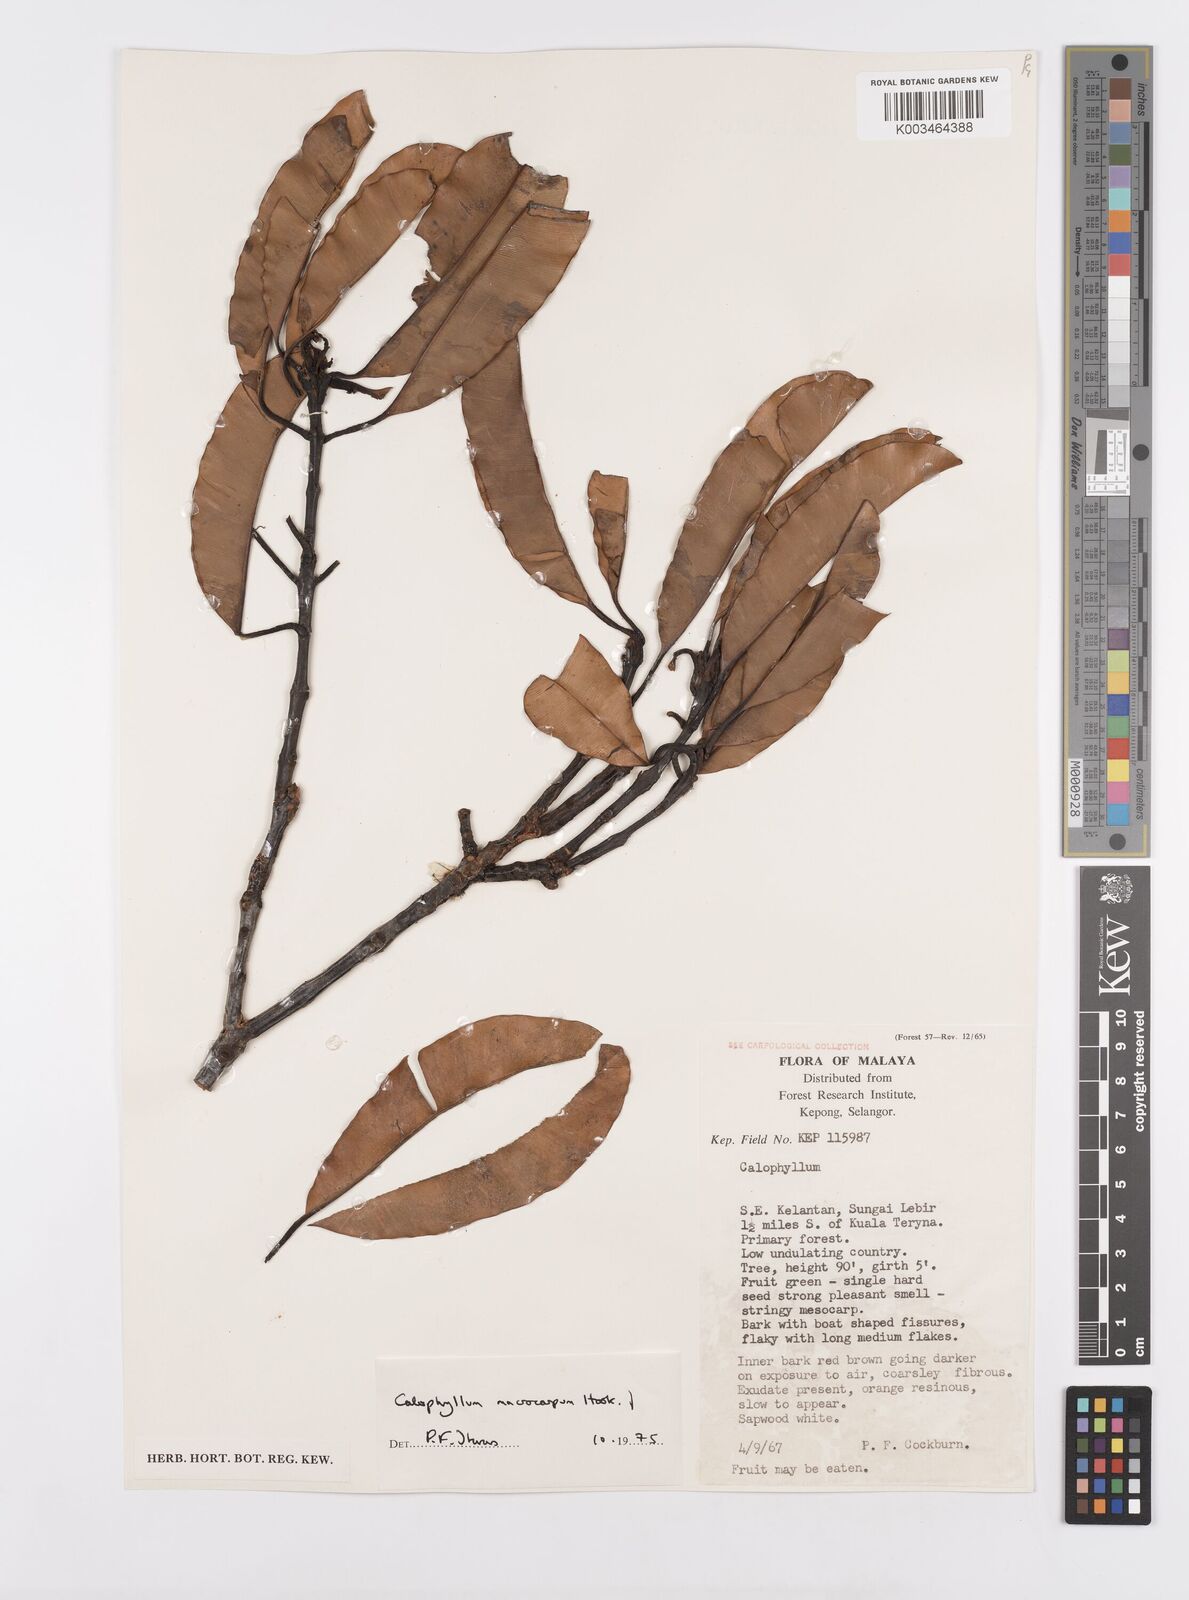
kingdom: Plantae
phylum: Tracheophyta
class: Magnoliopsida
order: Malpighiales
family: Calophyllaceae
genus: Calophyllum
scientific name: Calophyllum macrocarpum
